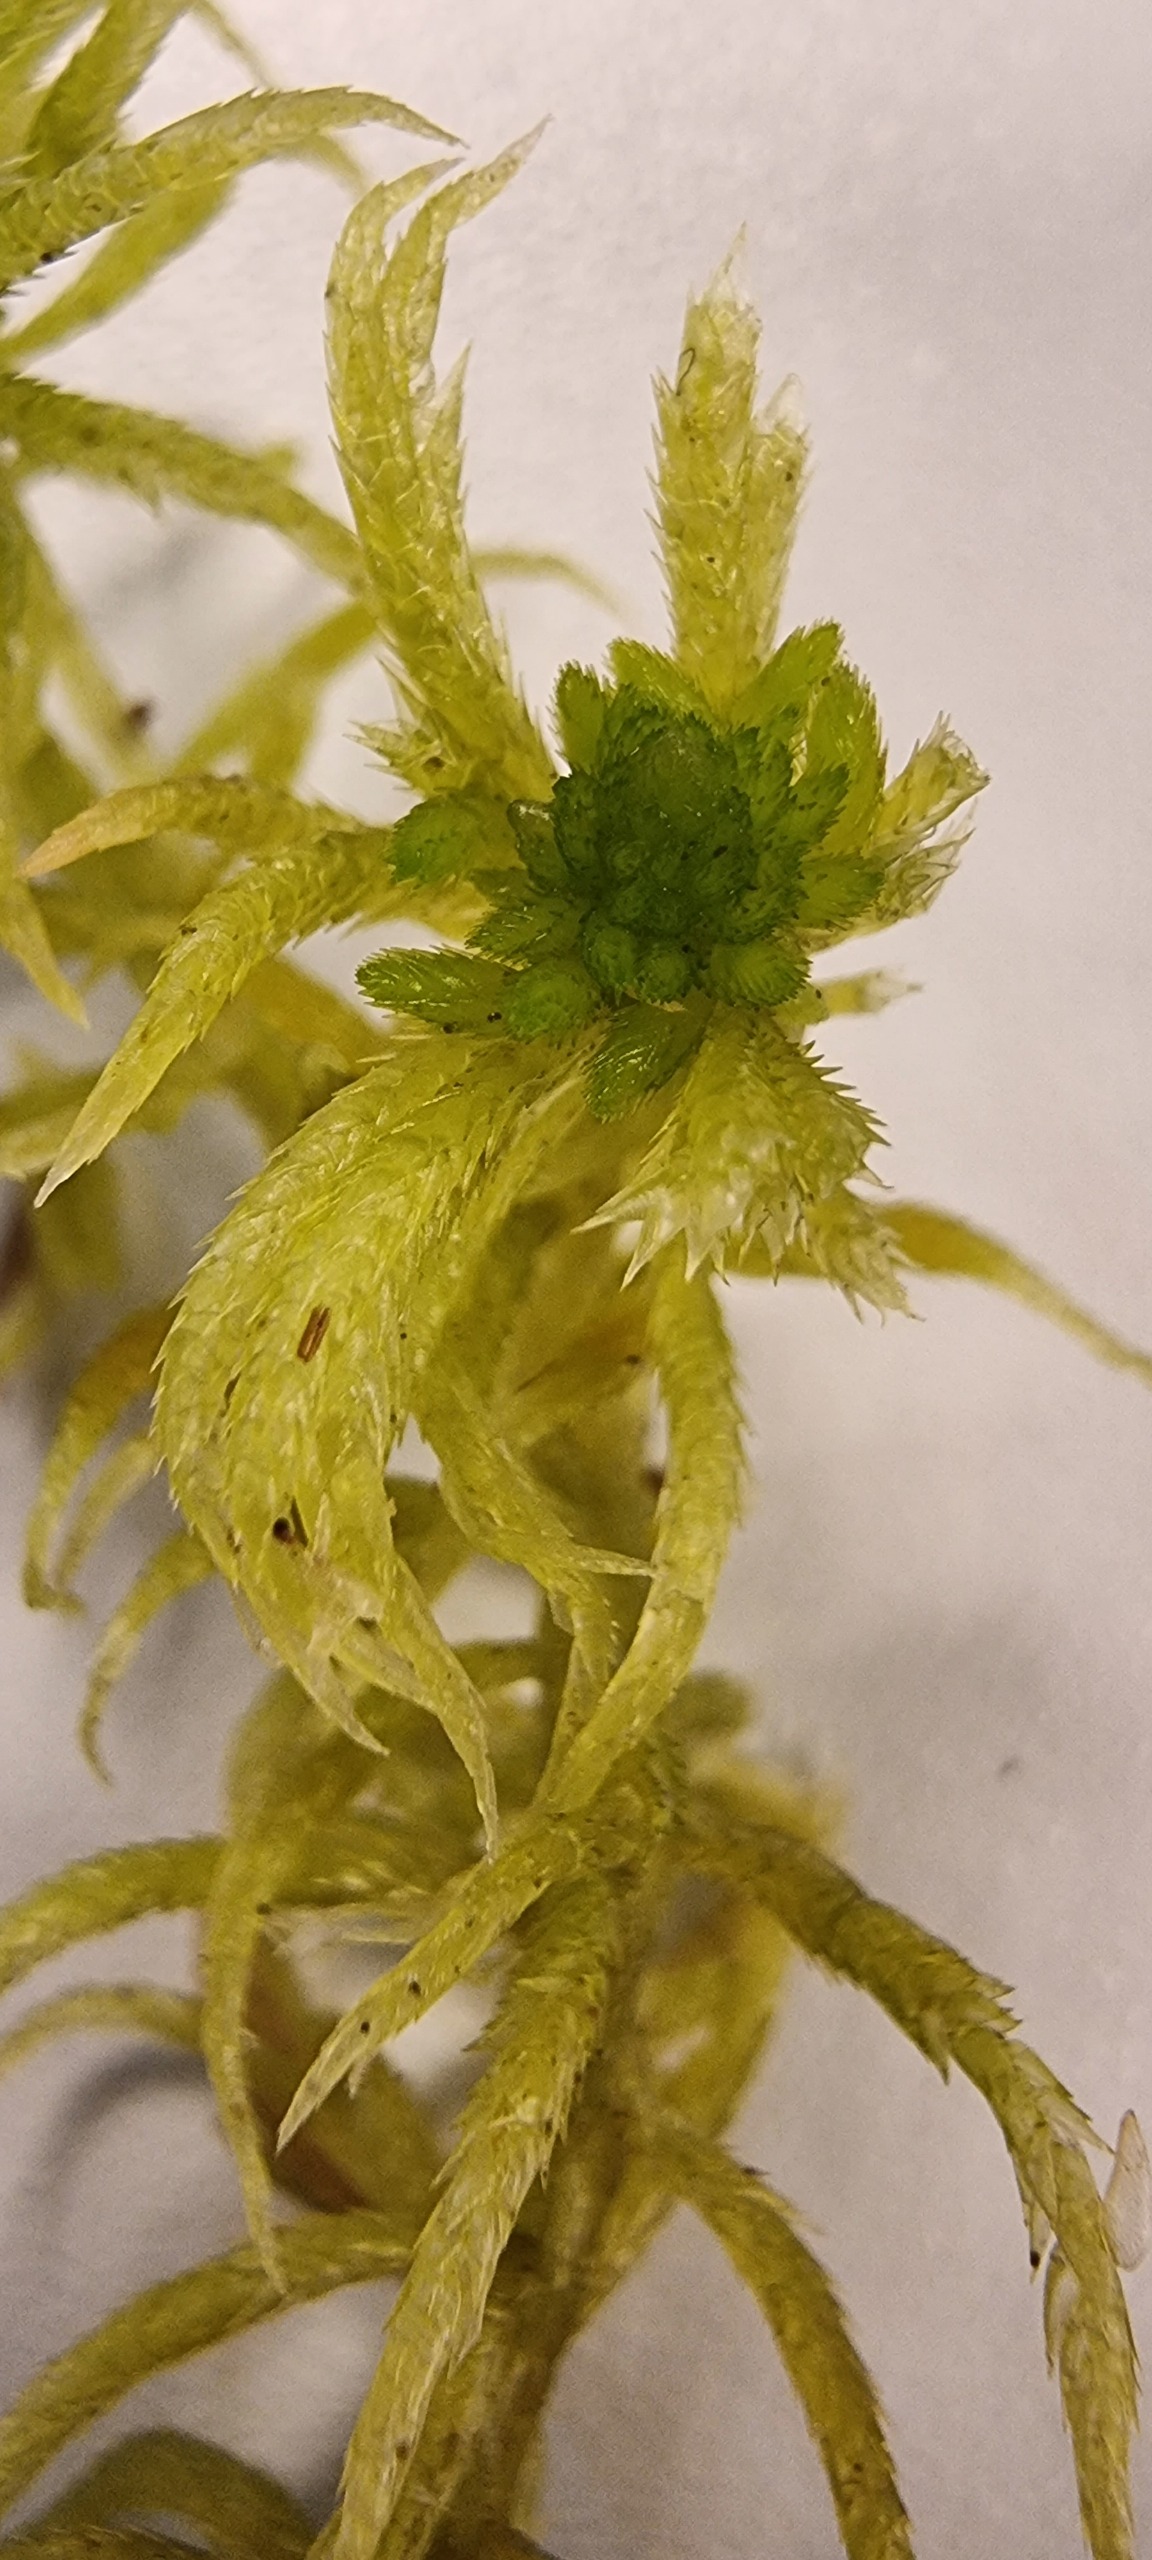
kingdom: Plantae
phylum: Bryophyta
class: Sphagnopsida
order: Sphagnales
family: Sphagnaceae
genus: Sphagnum
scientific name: Sphagnum riparium
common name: Kløftet tørvemos
